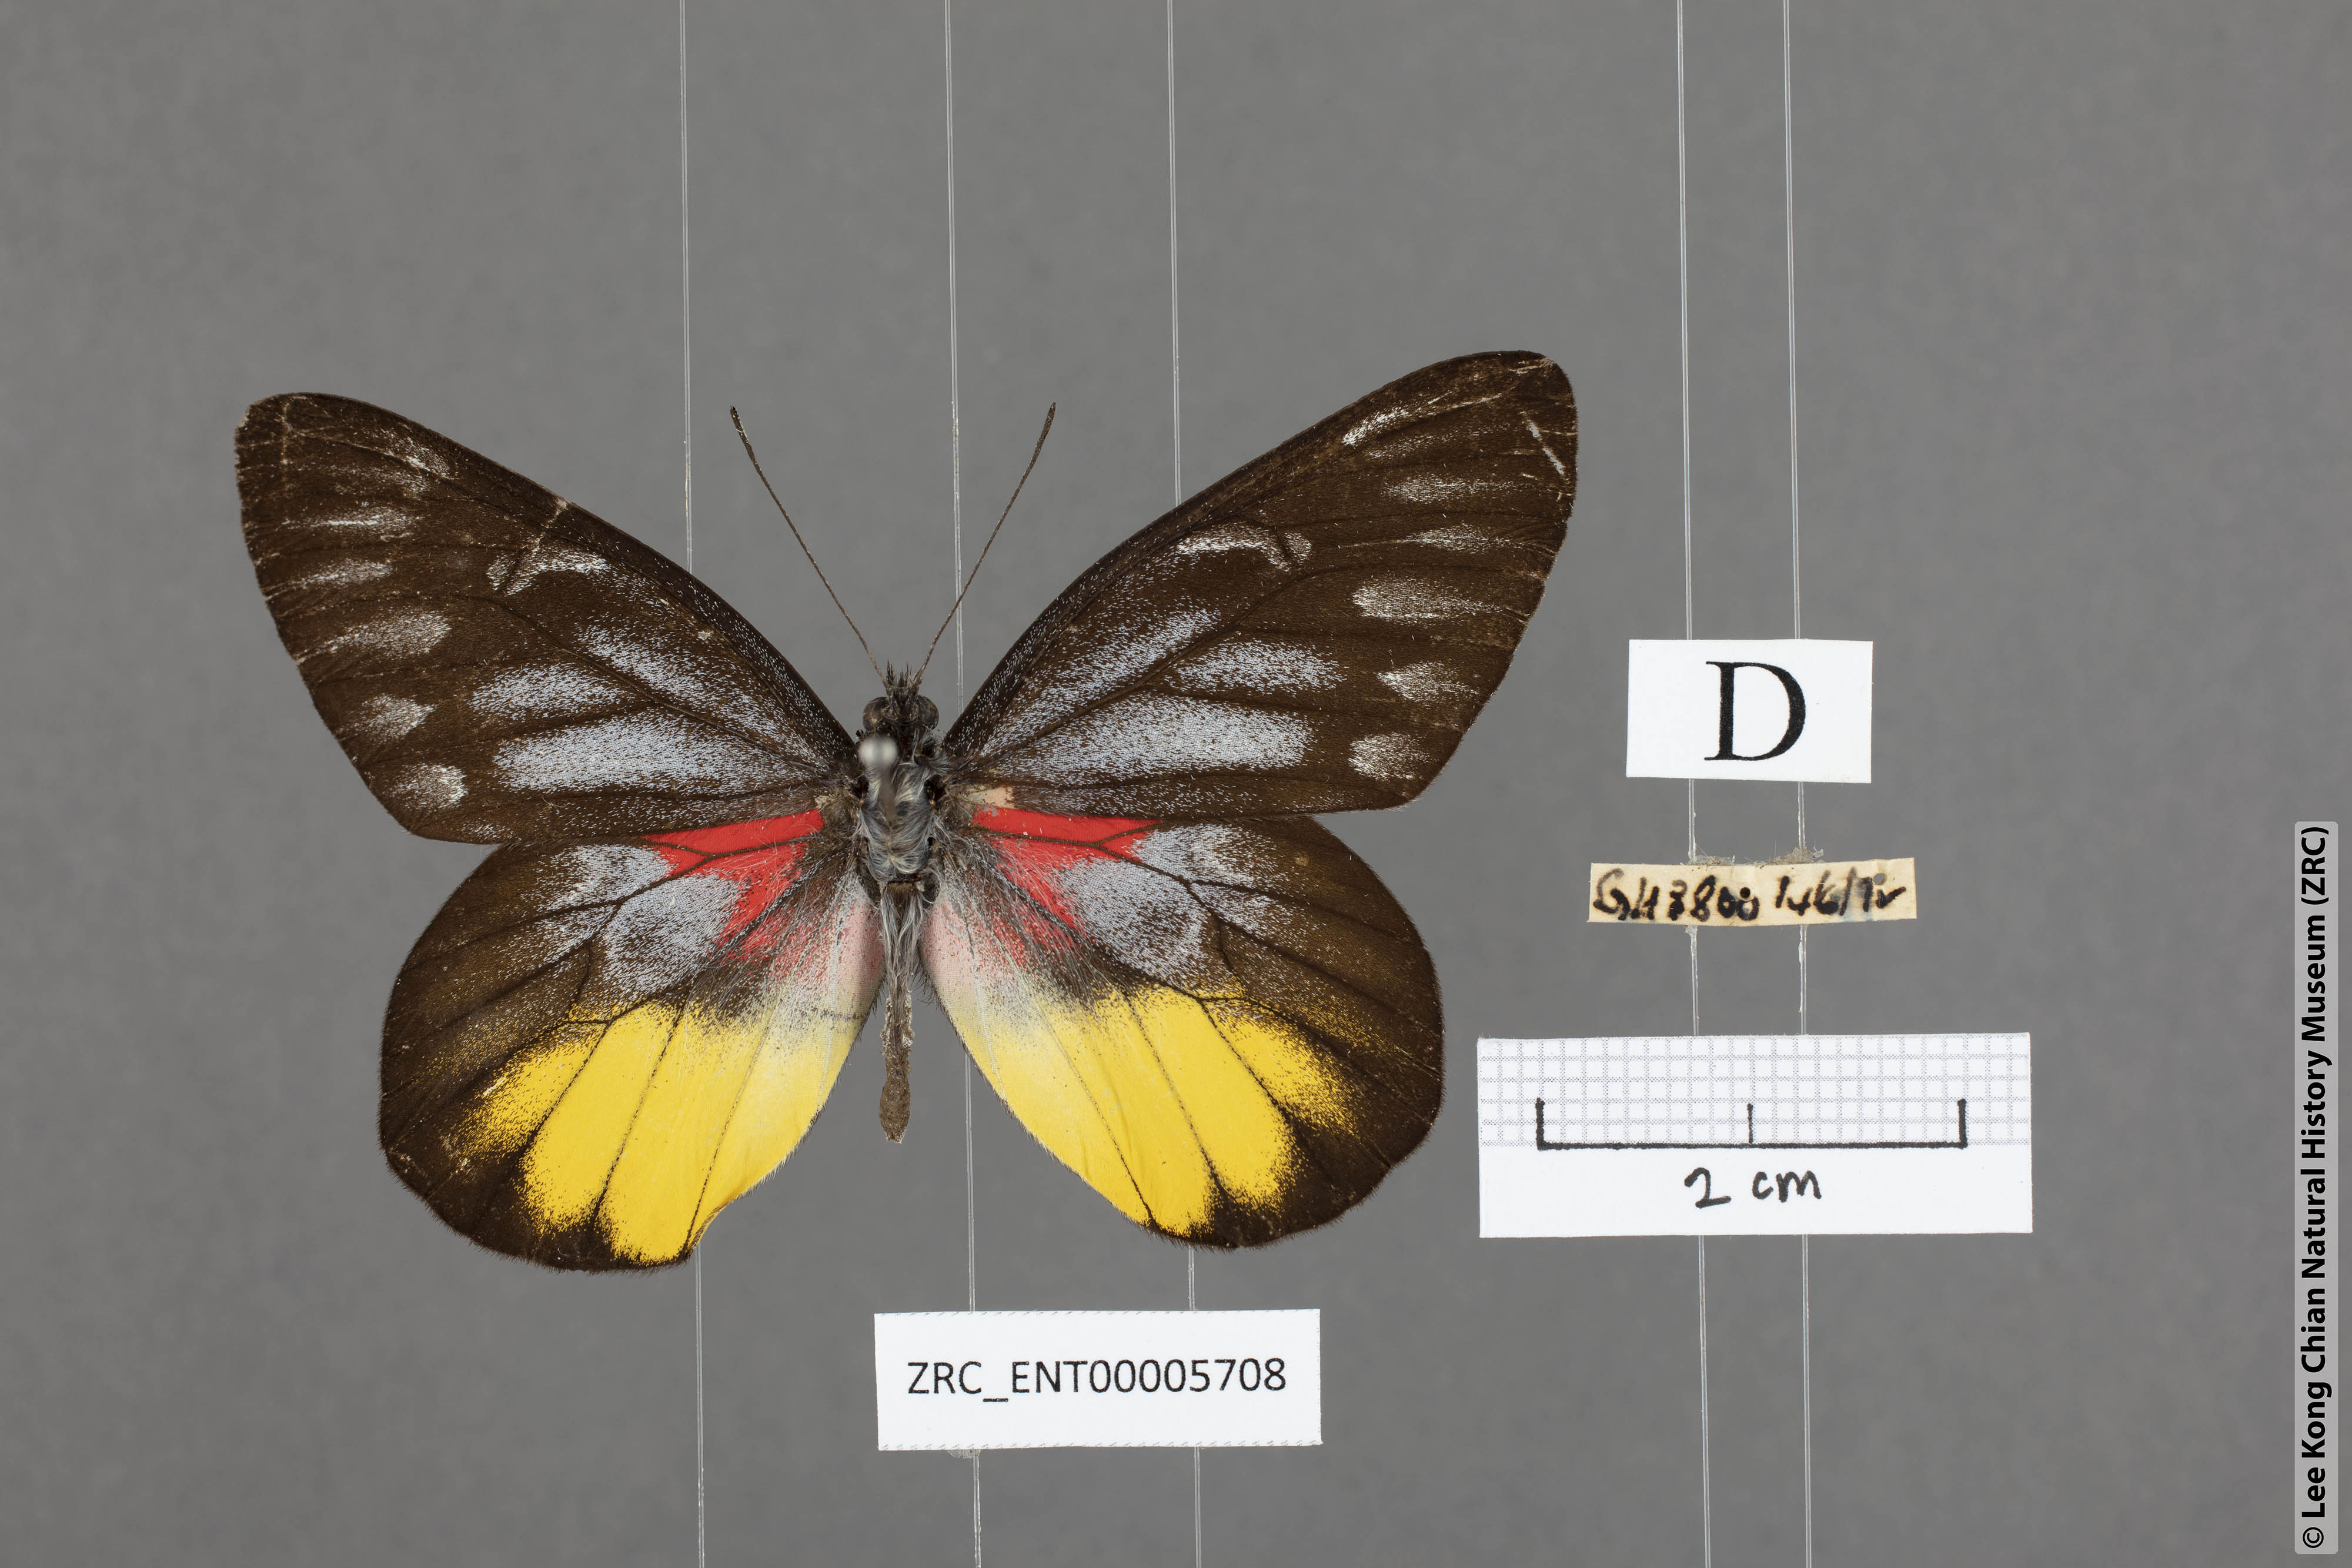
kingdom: Animalia
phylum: Arthropoda
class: Insecta
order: Lepidoptera
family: Pieridae
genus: Delias
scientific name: Delias ninus
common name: Malayan jezebel
